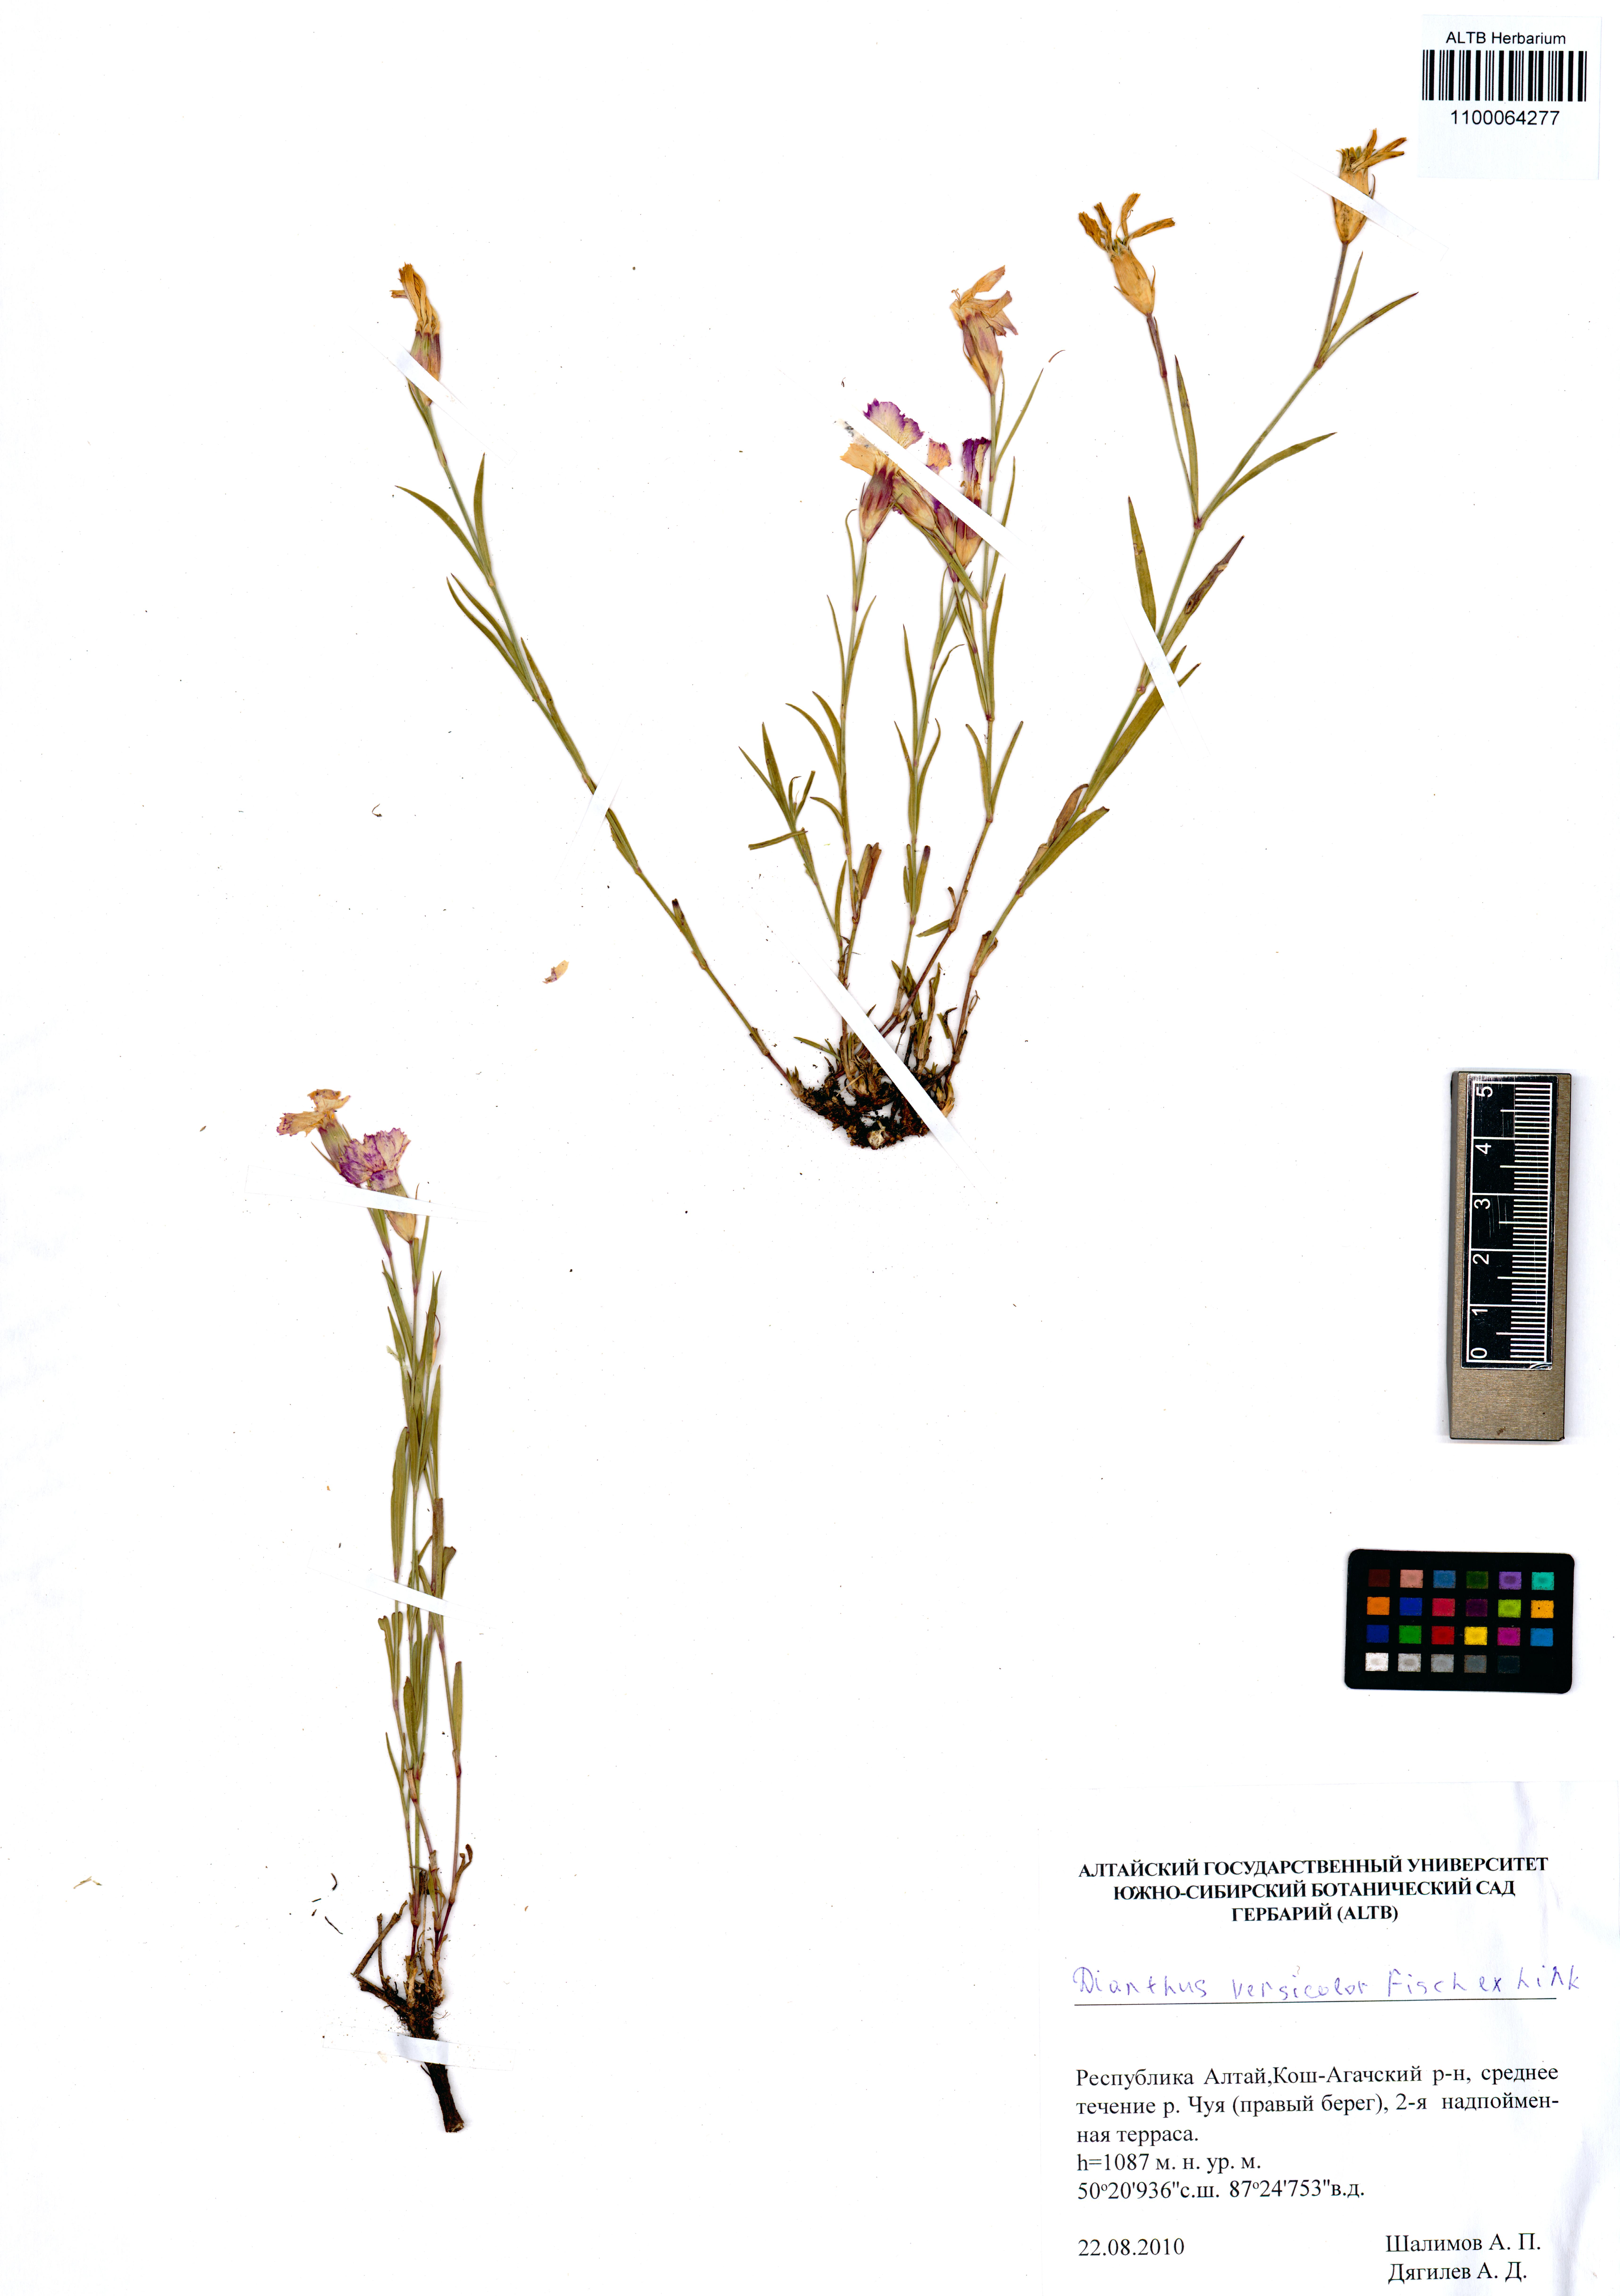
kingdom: Plantae
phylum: Tracheophyta
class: Magnoliopsida
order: Caryophyllales
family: Caryophyllaceae
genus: Dianthus
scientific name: Dianthus chinensis
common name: Rainbow pink
